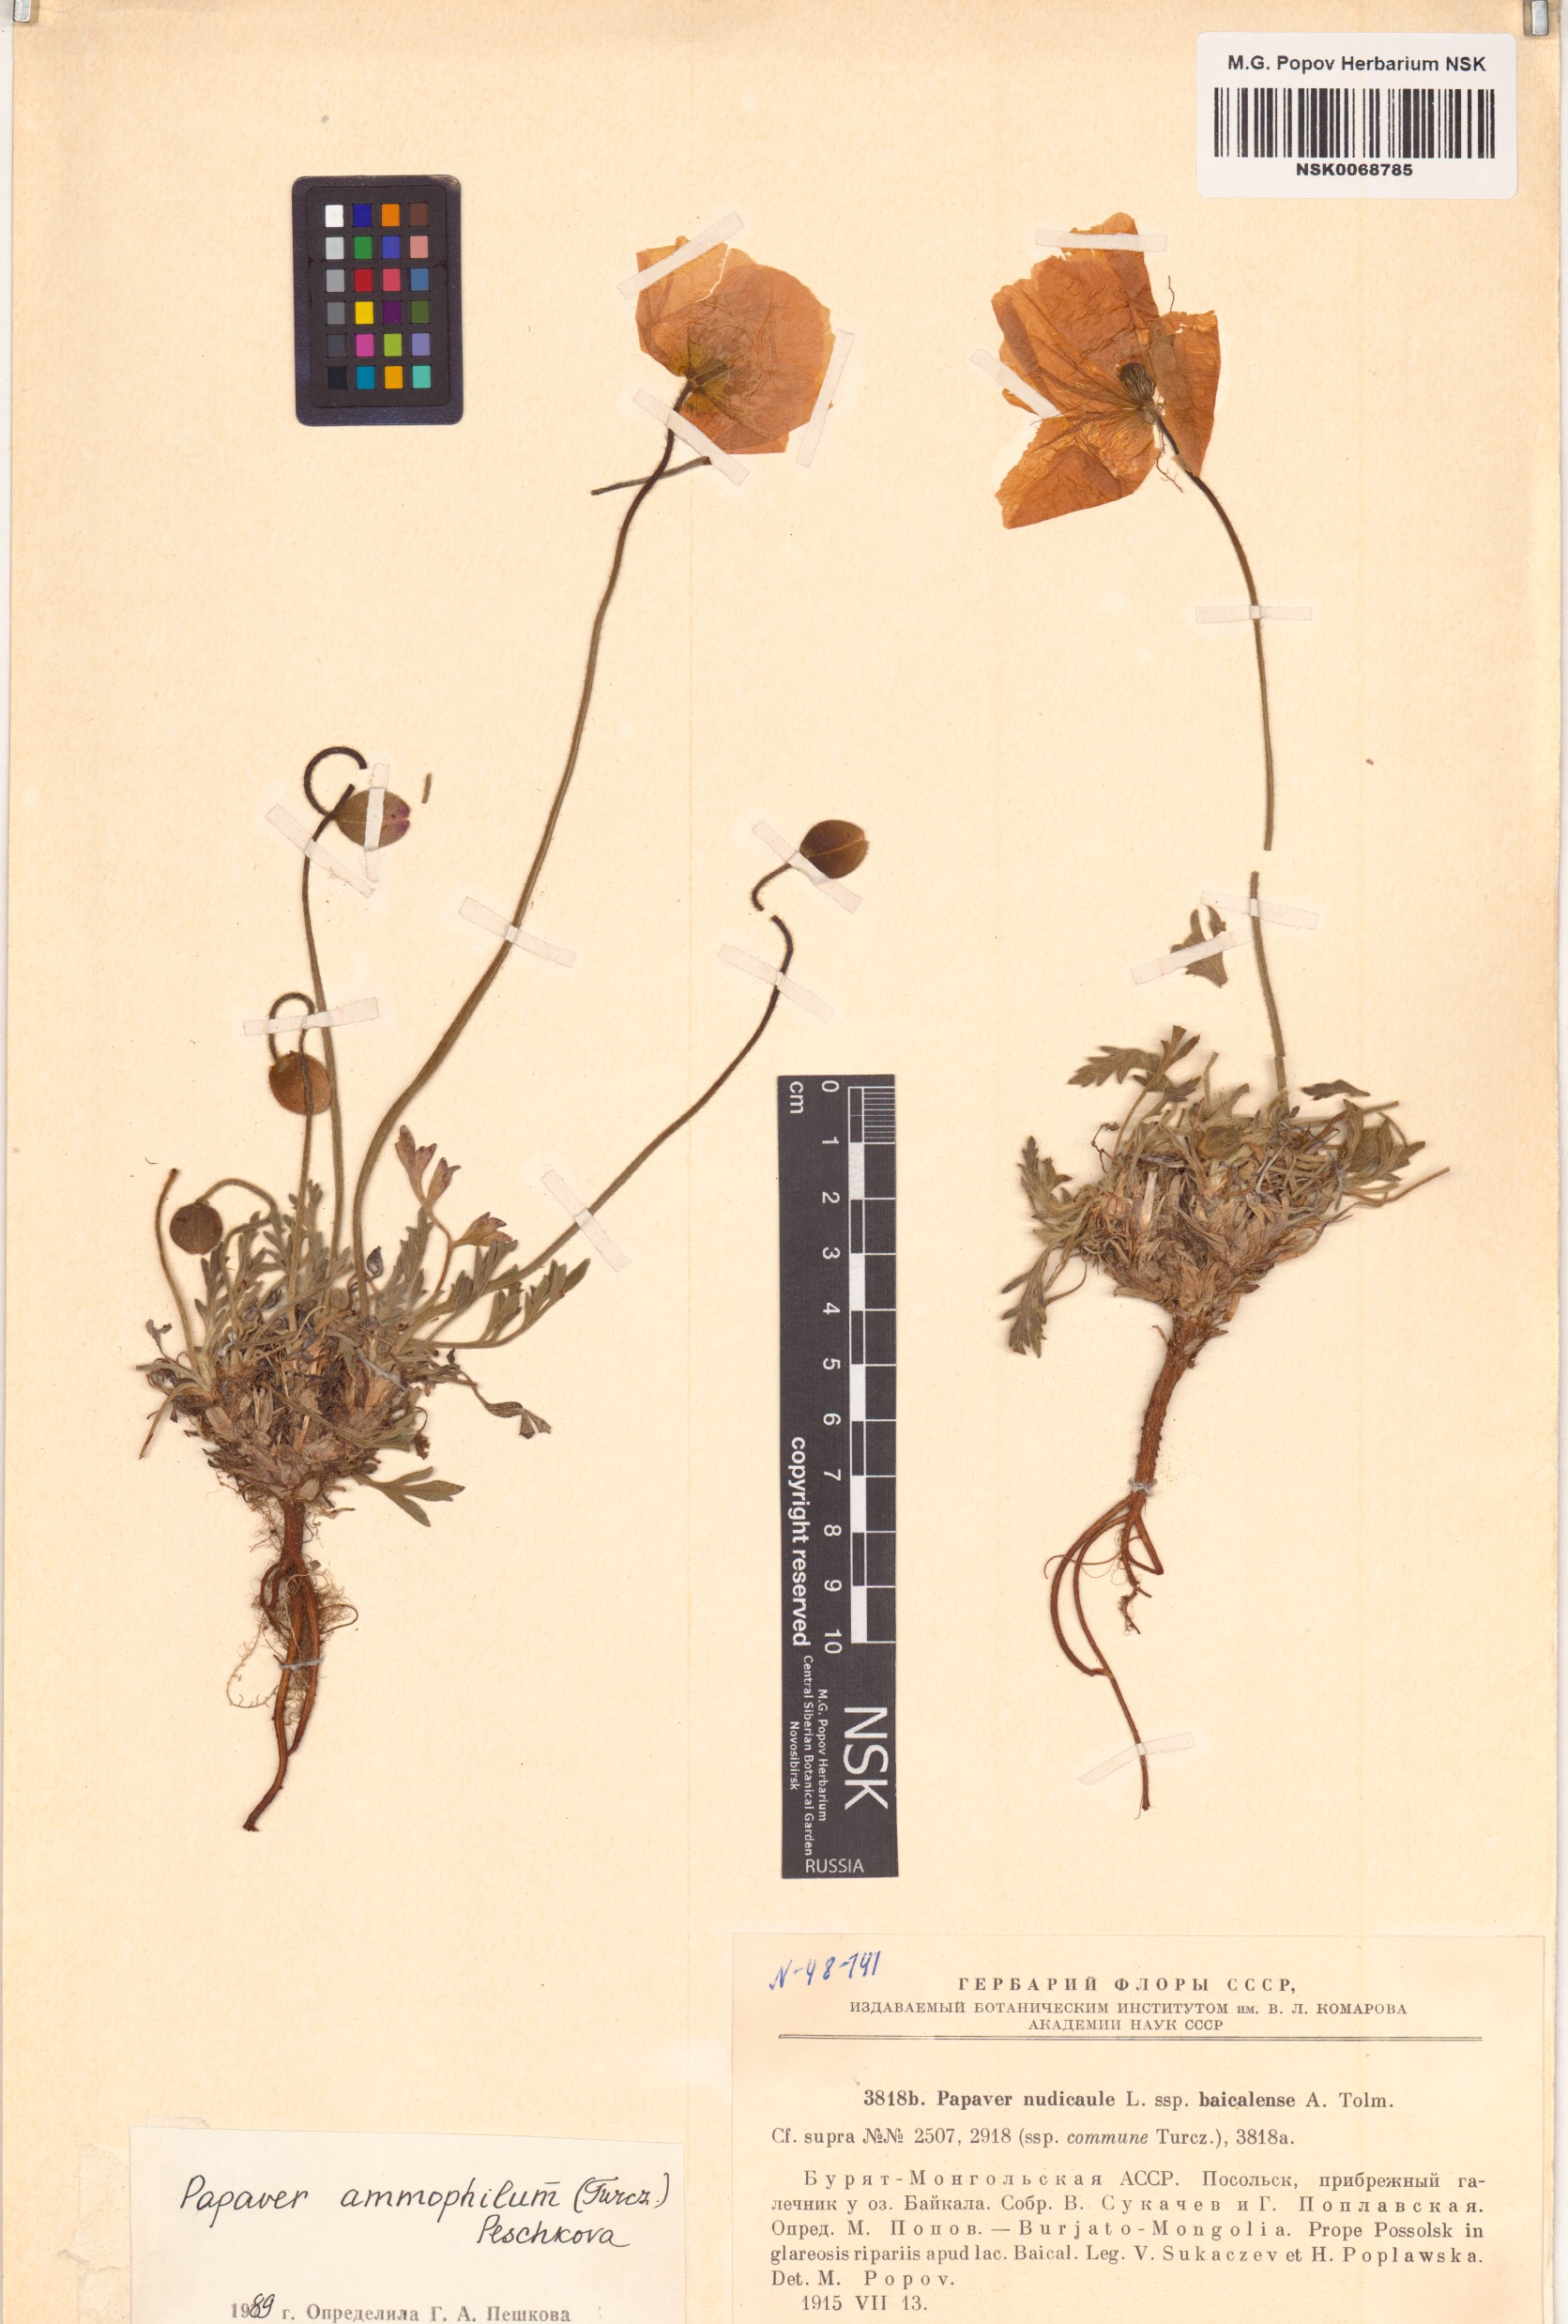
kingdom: Plantae
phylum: Tracheophyta
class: Magnoliopsida
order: Ranunculales
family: Papaveraceae
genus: Papaver
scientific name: Papaver nudicaule
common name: Arctic poppy
